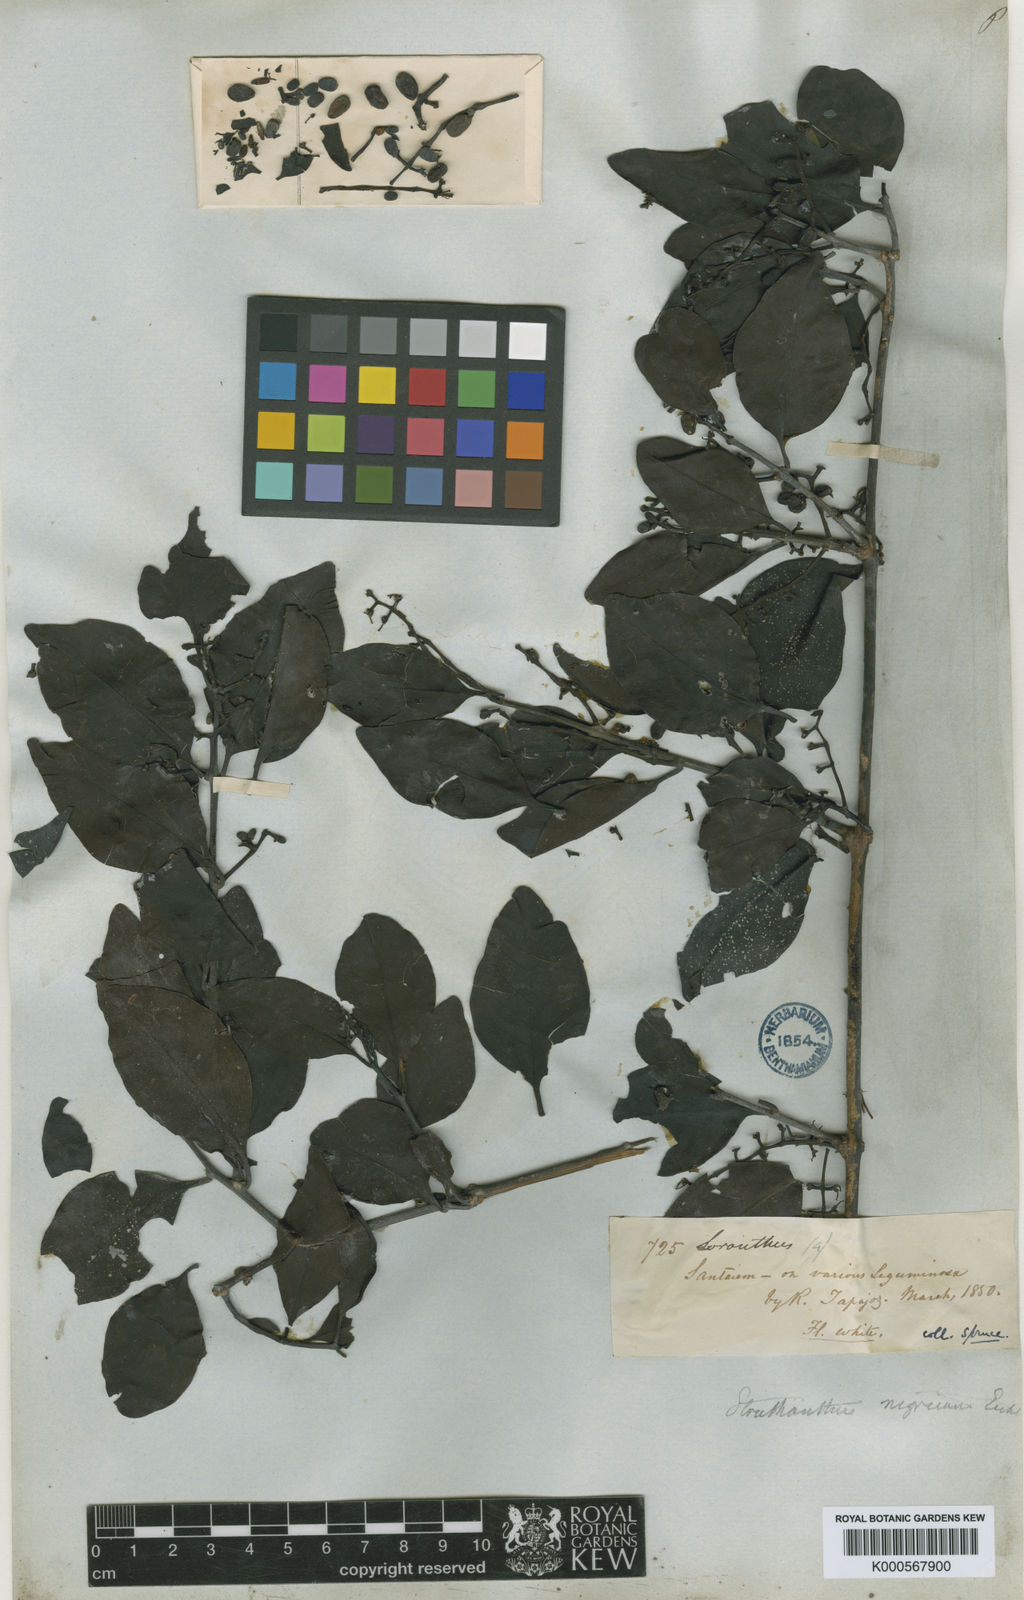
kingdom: Plantae
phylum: Tracheophyta
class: Magnoliopsida
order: Santalales
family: Loranthaceae
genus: Struthanthus
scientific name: Struthanthus nigricans
